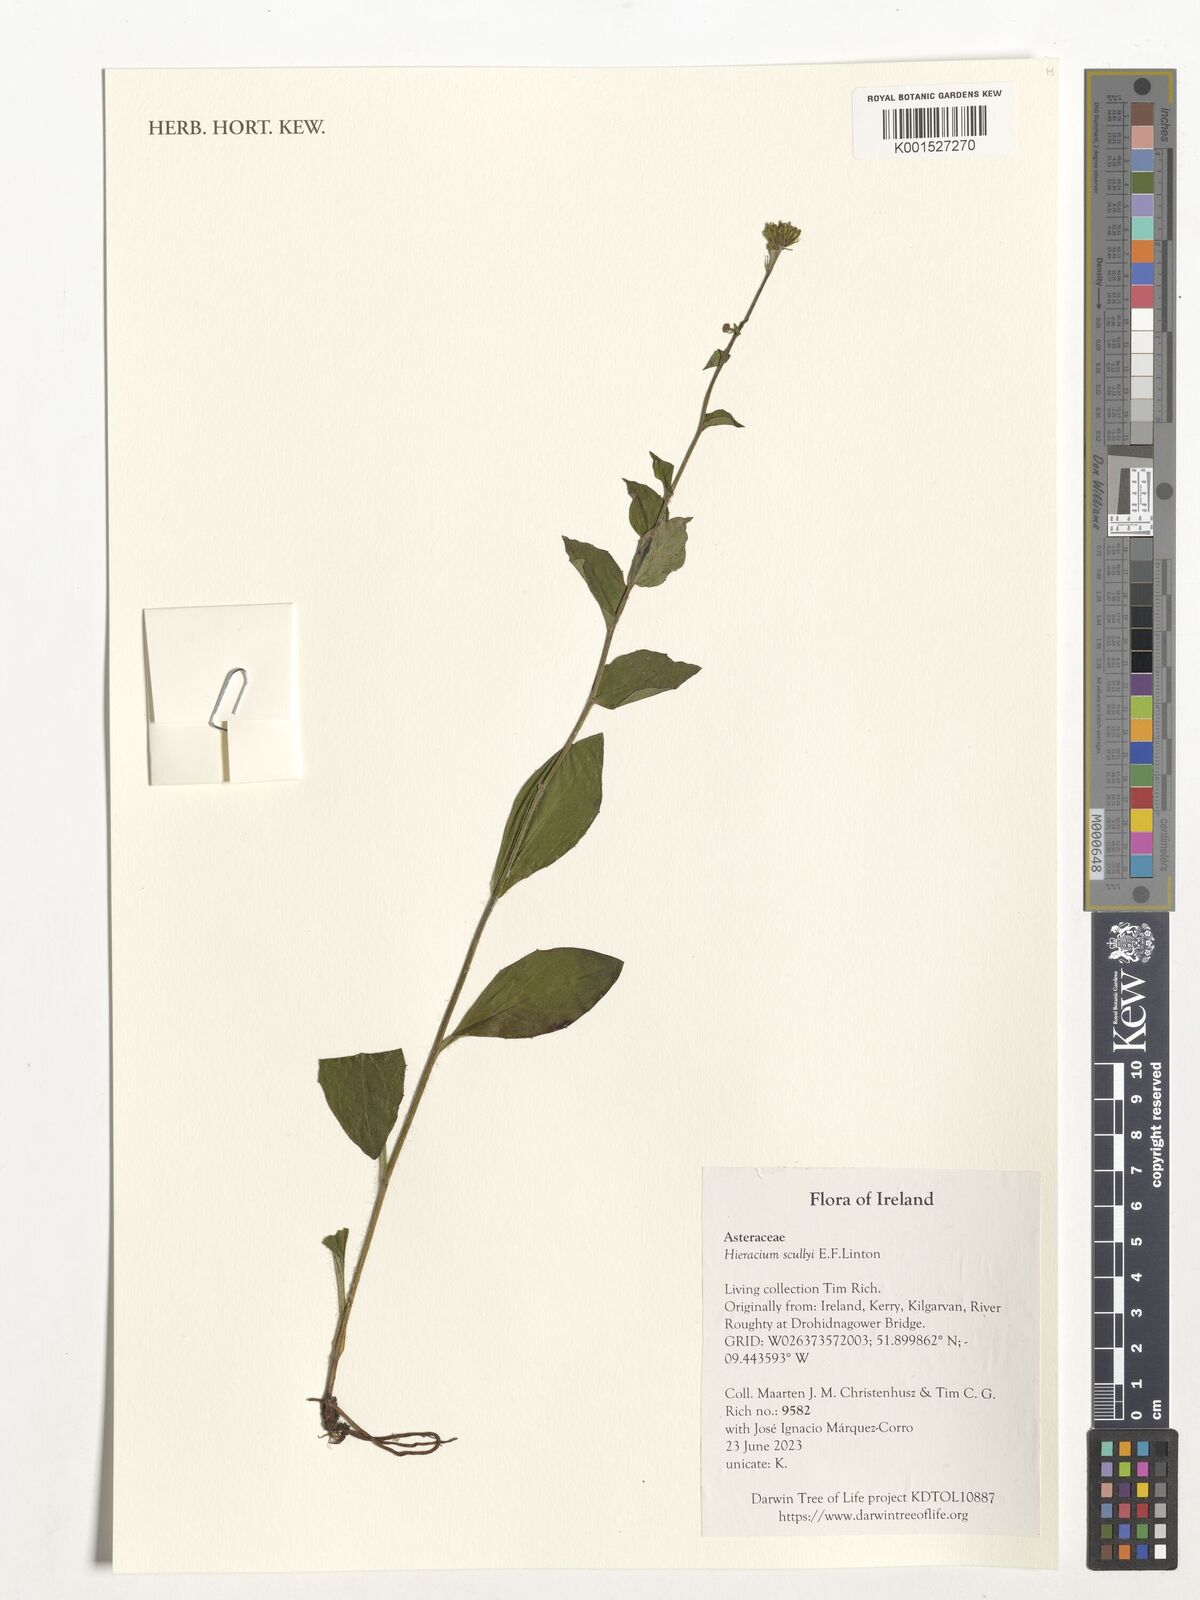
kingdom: Plantae
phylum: Tracheophyta
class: Magnoliopsida
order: Asterales
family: Asteraceae
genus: Hieracium
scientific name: Hieracium scullyi
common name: Scully's hawkweed
